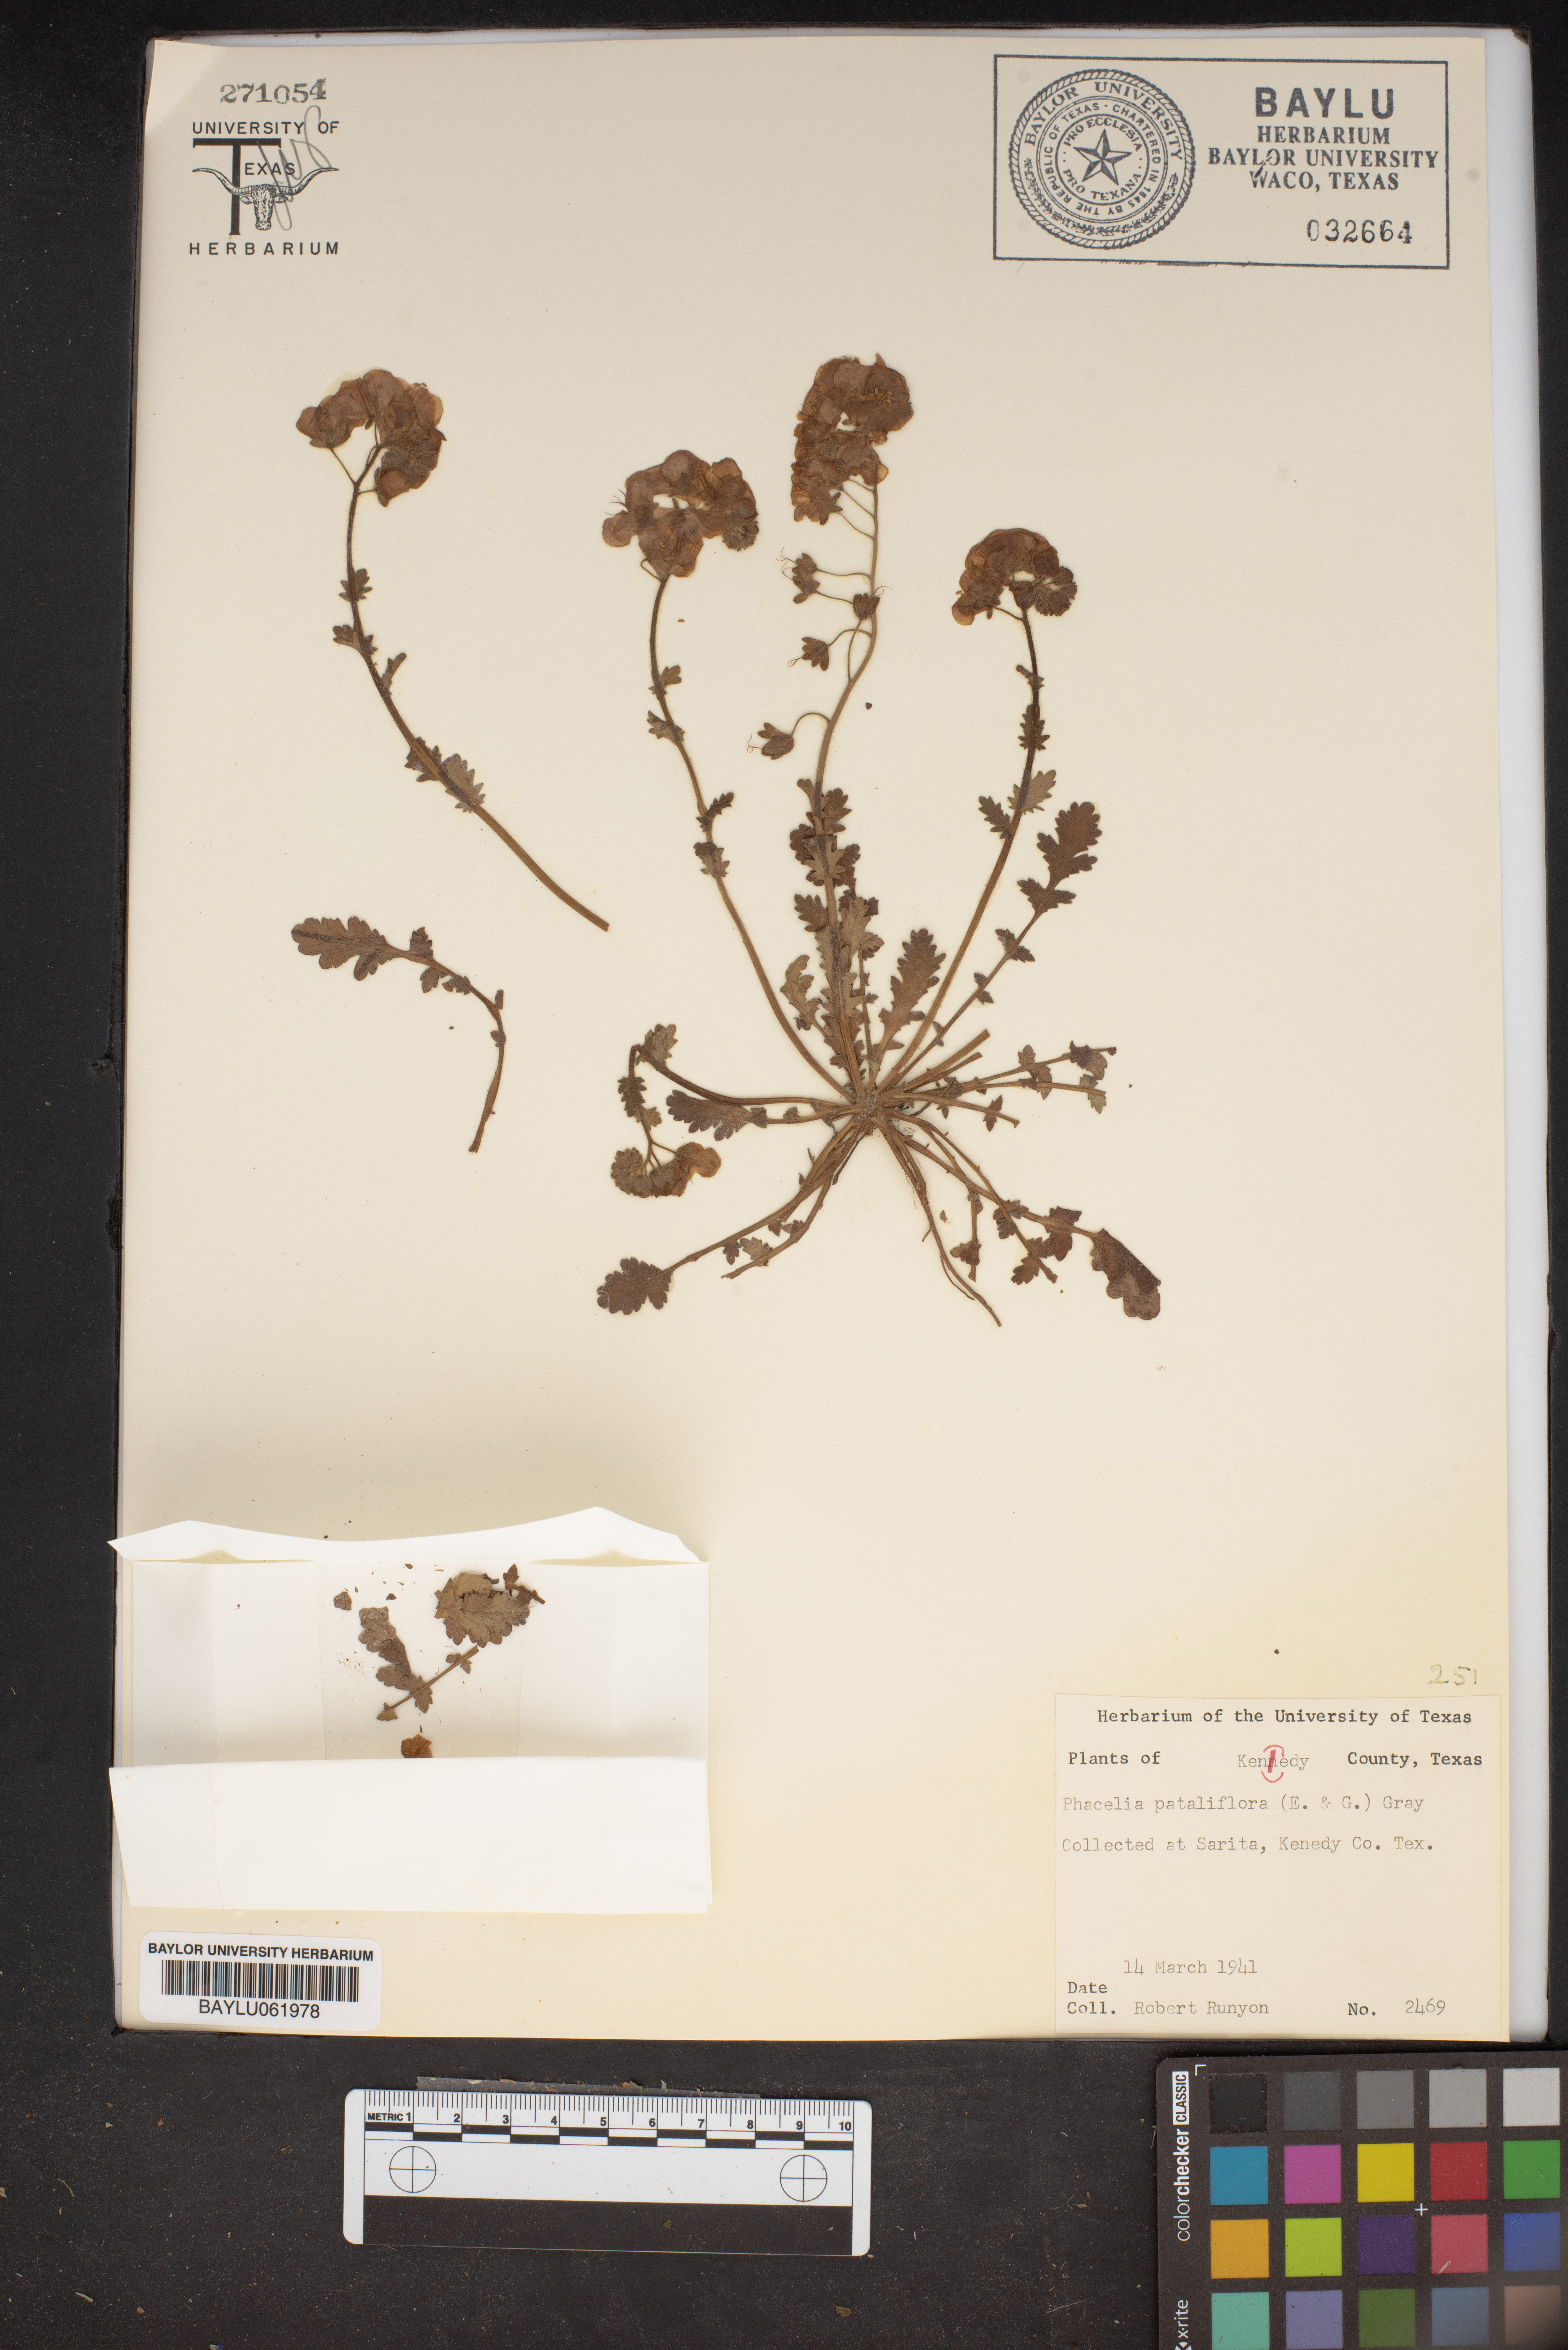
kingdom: Plantae
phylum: Tracheophyta
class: Magnoliopsida
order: Boraginales
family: Hydrophyllaceae
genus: Phacelia
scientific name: Phacelia patuliflora
